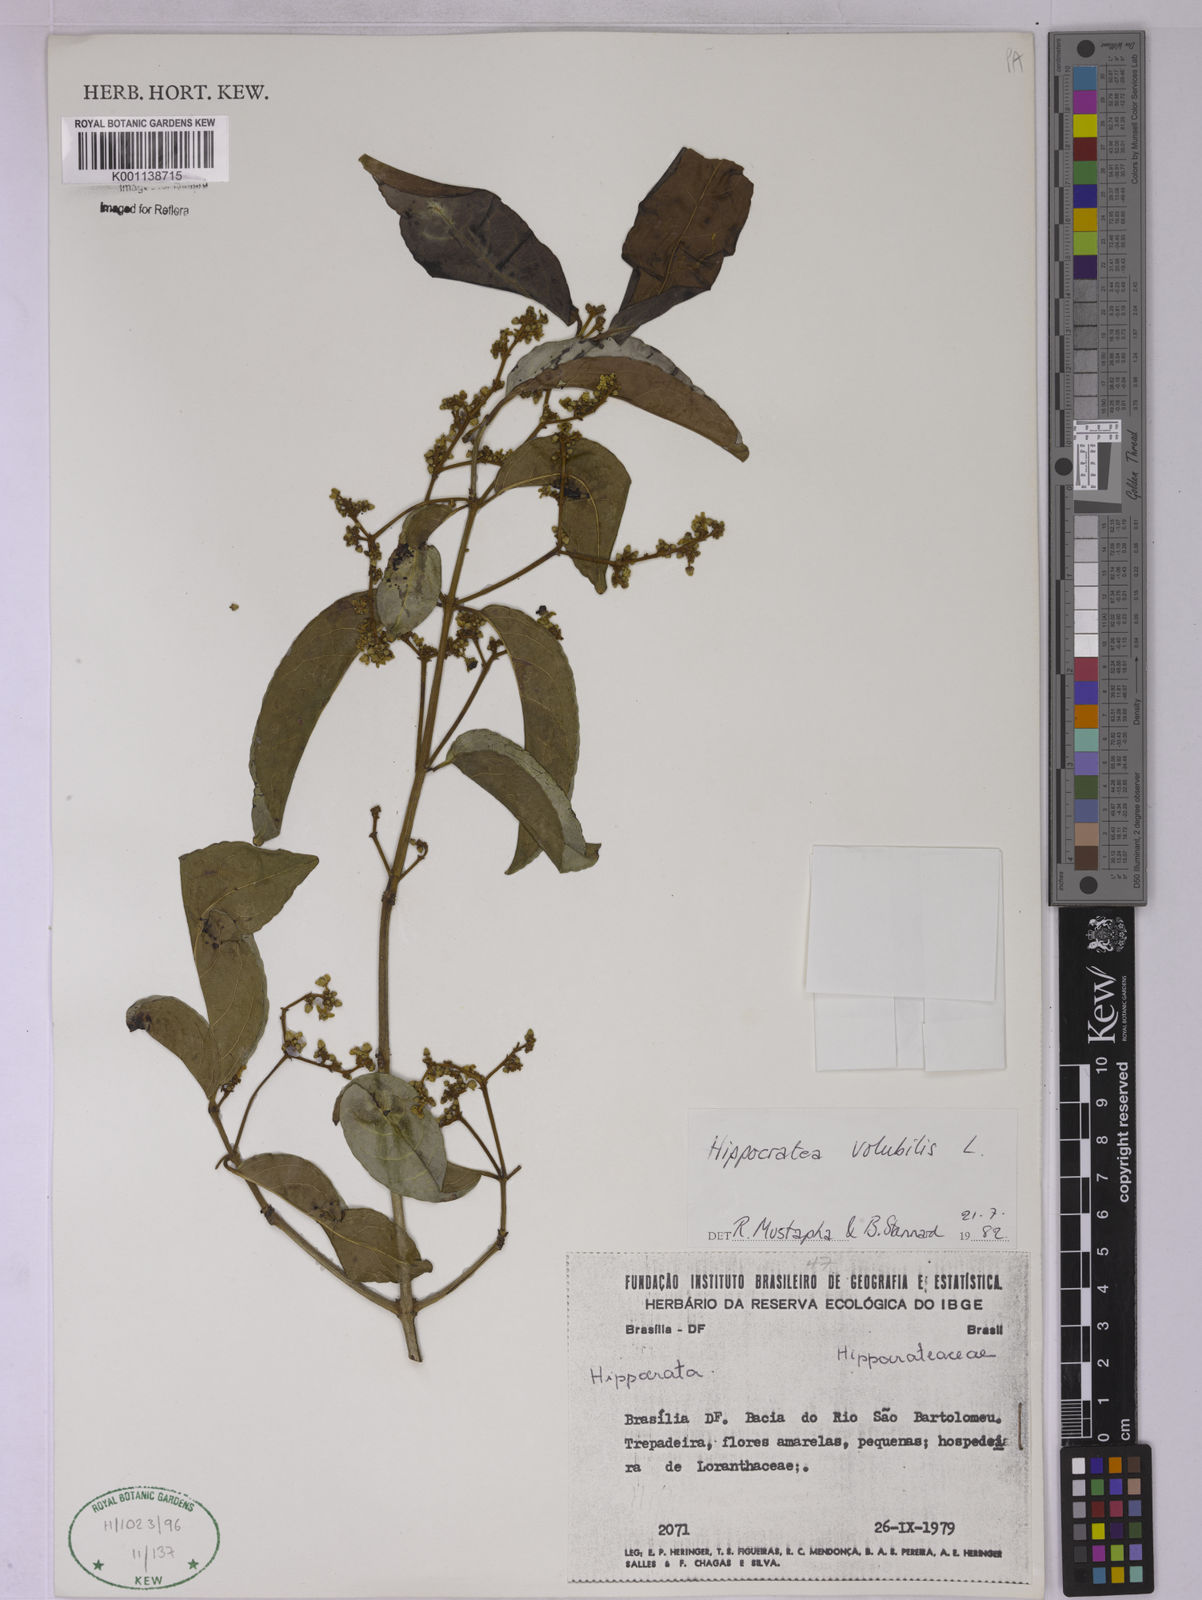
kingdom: Plantae
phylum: Tracheophyta
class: Magnoliopsida
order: Celastrales
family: Celastraceae
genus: Hippocratea
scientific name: Hippocratea volubilis
